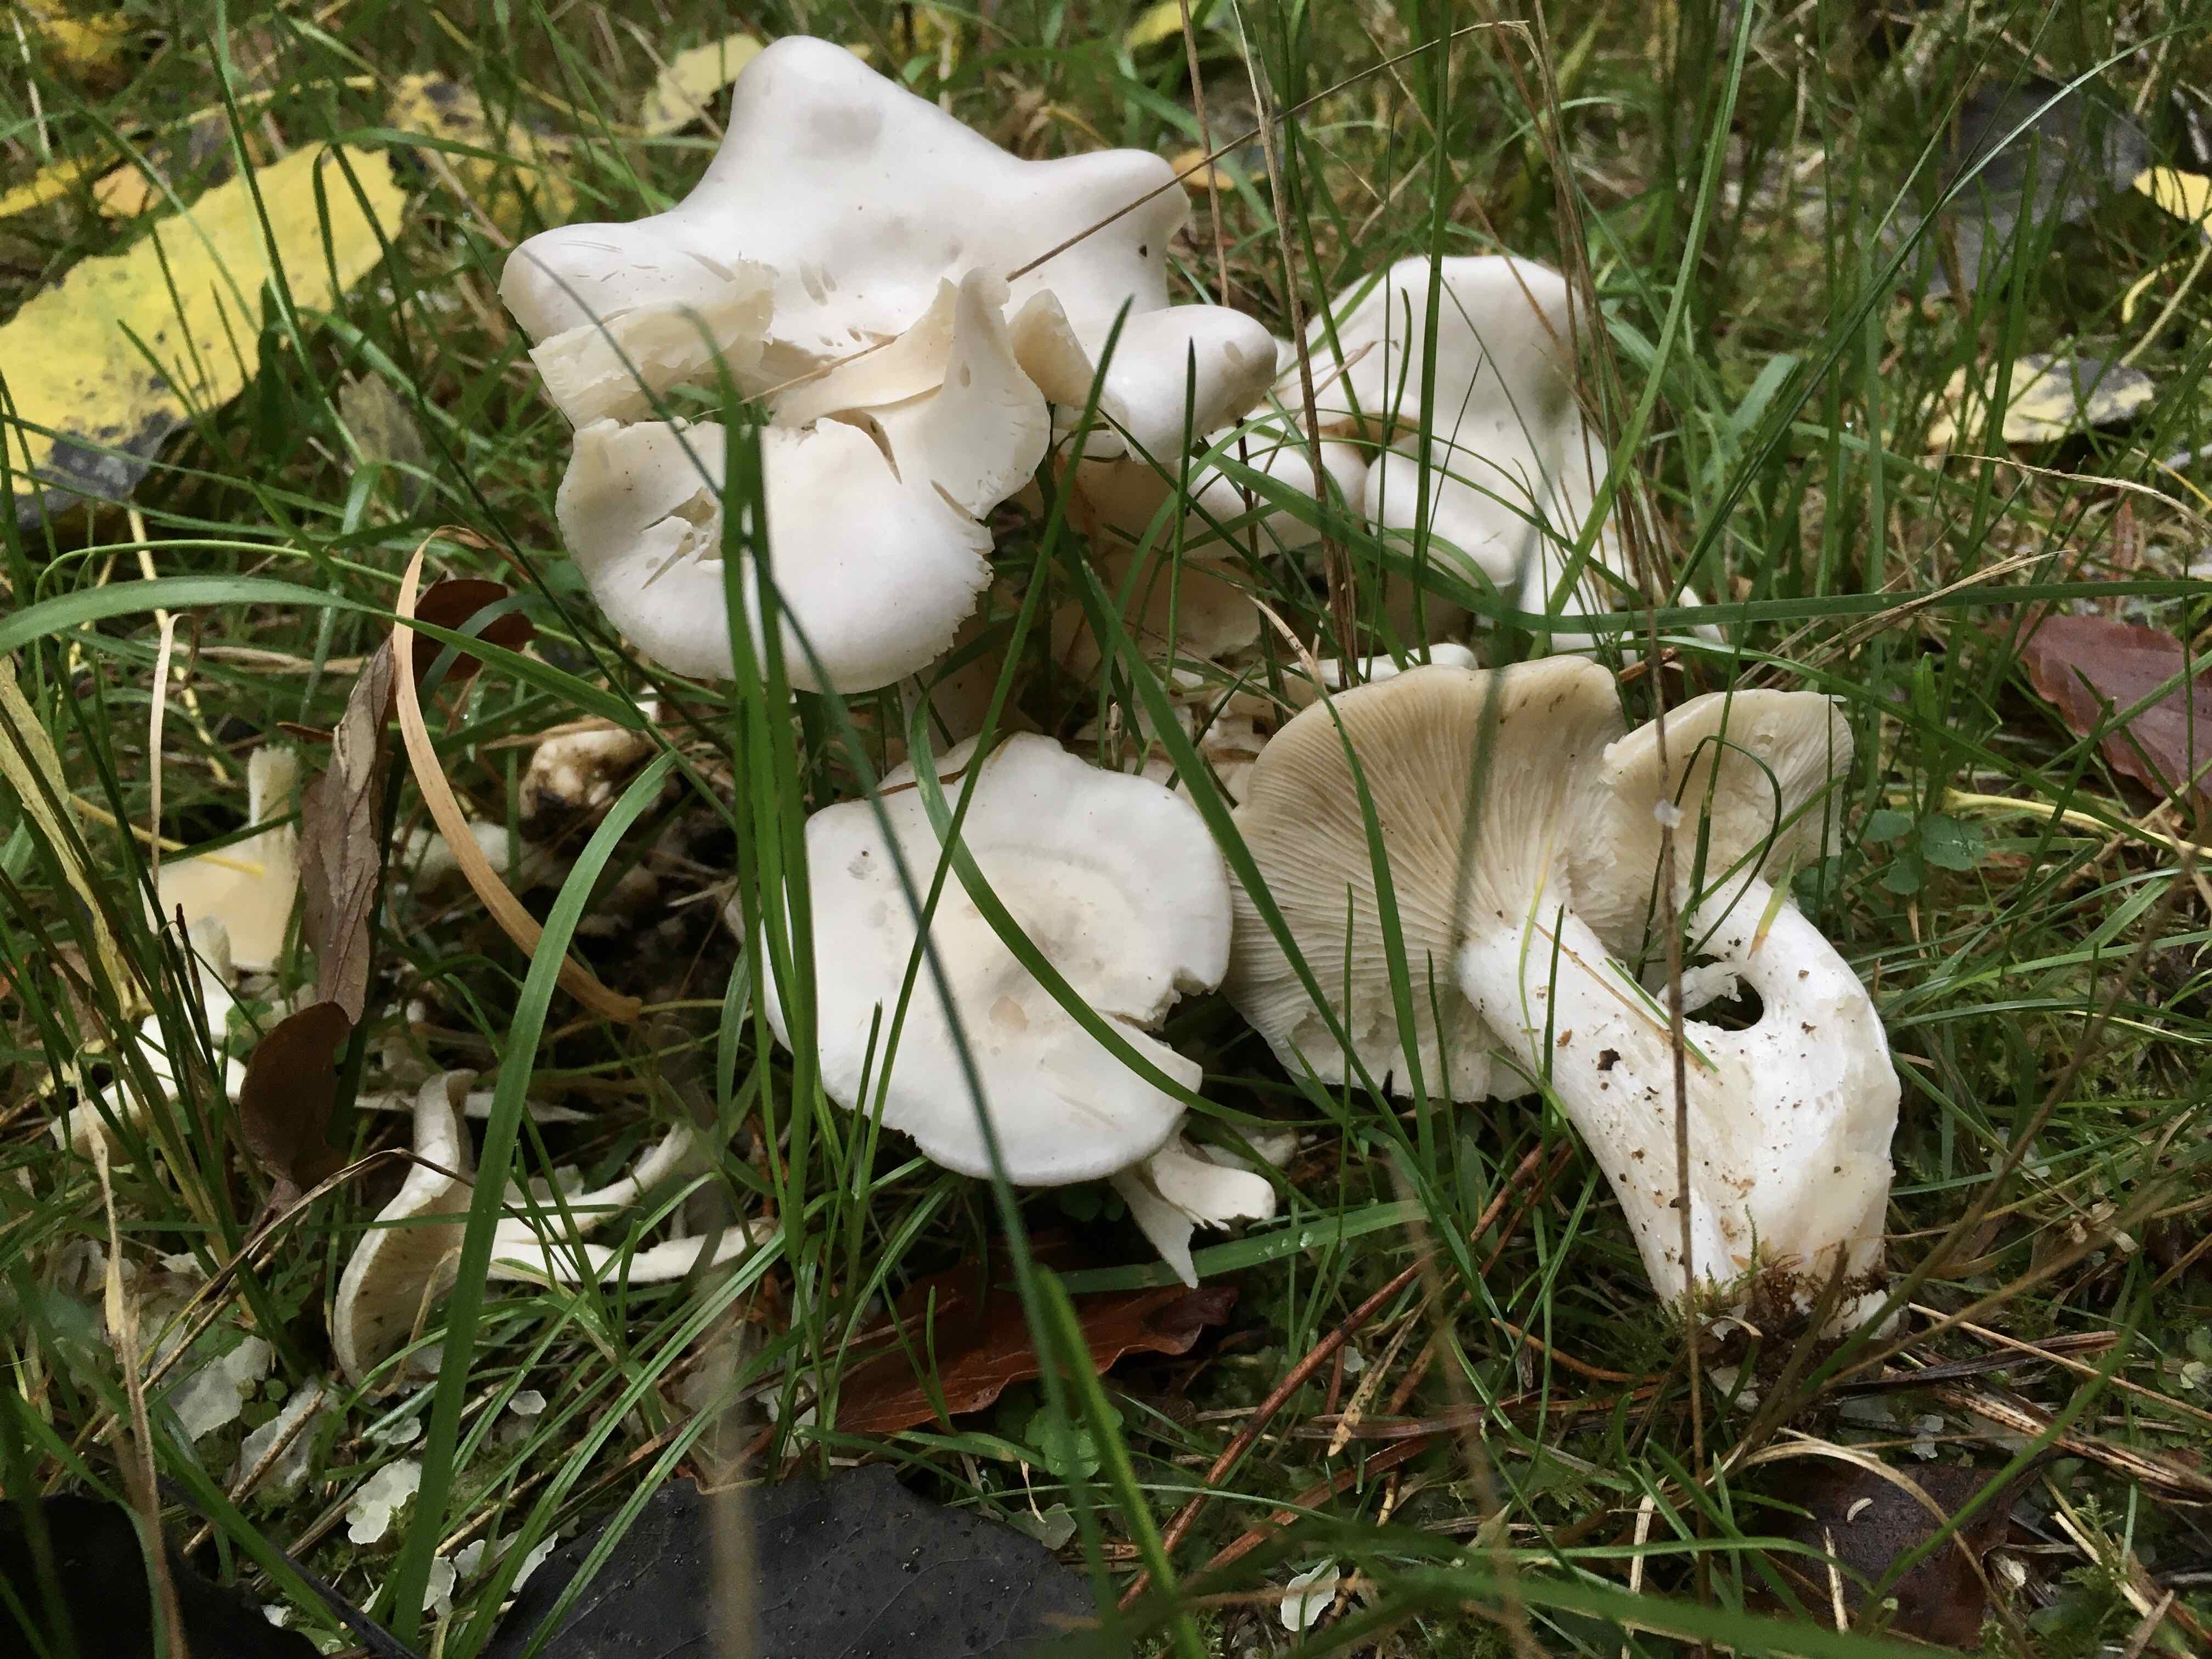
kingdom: Fungi
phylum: Basidiomycota
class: Agaricomycetes
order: Agaricales
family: Tricholomataceae
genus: Leucocybe
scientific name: Leucocybe connata
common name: knippe-tragthat
